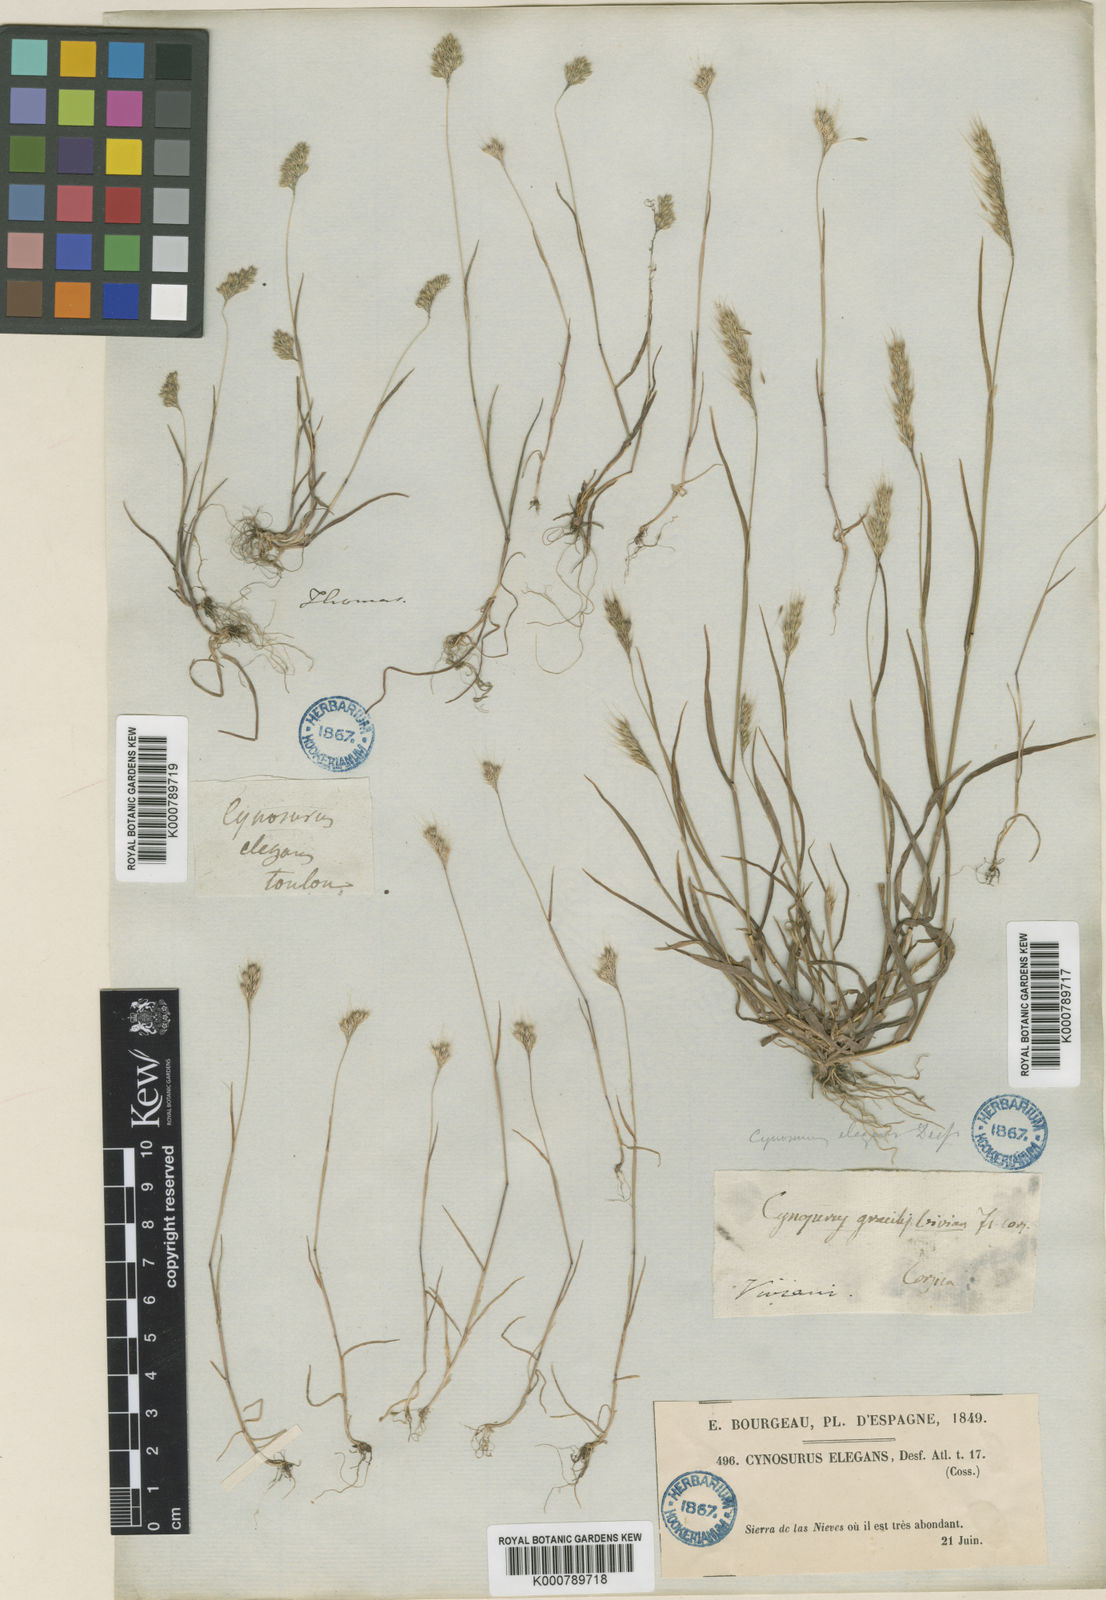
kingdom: Plantae
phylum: Tracheophyta
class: Liliopsida
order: Poales
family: Poaceae
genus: Cynosurus
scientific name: Cynosurus elegans
